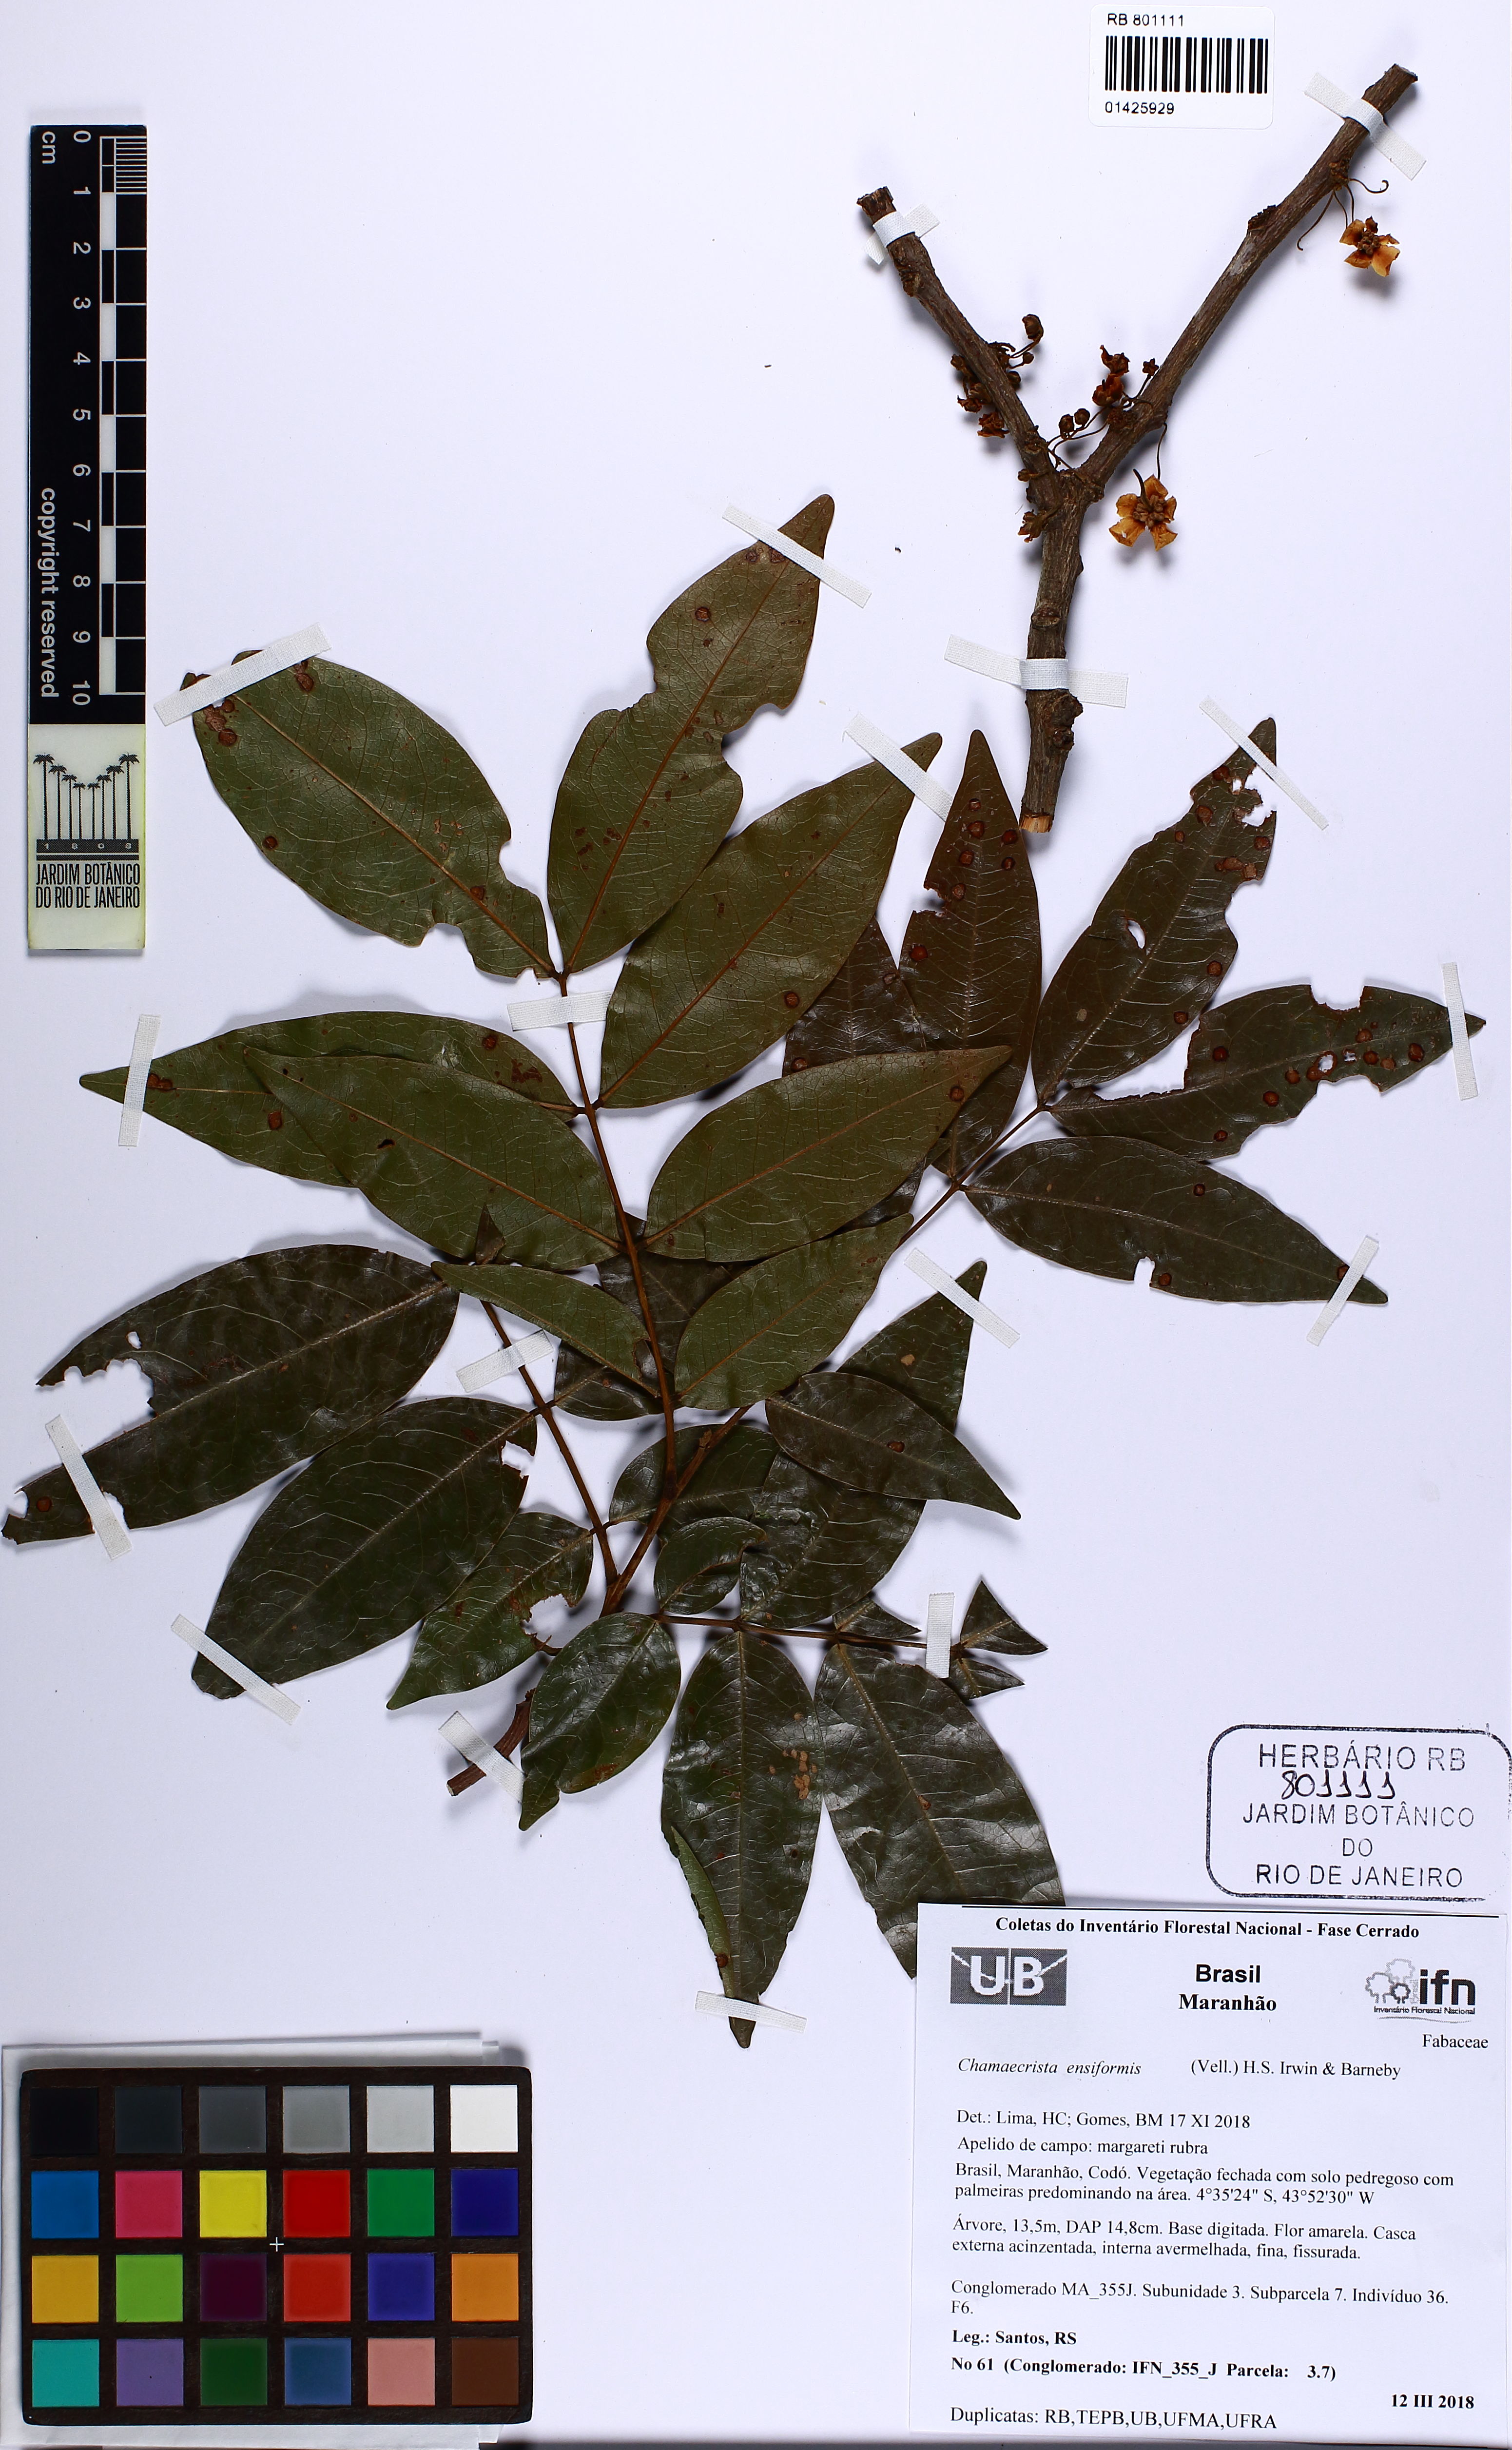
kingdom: Plantae
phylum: Tracheophyta
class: Magnoliopsida
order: Fabales
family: Fabaceae
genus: Chamaecrista
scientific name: Chamaecrista ensiformis
